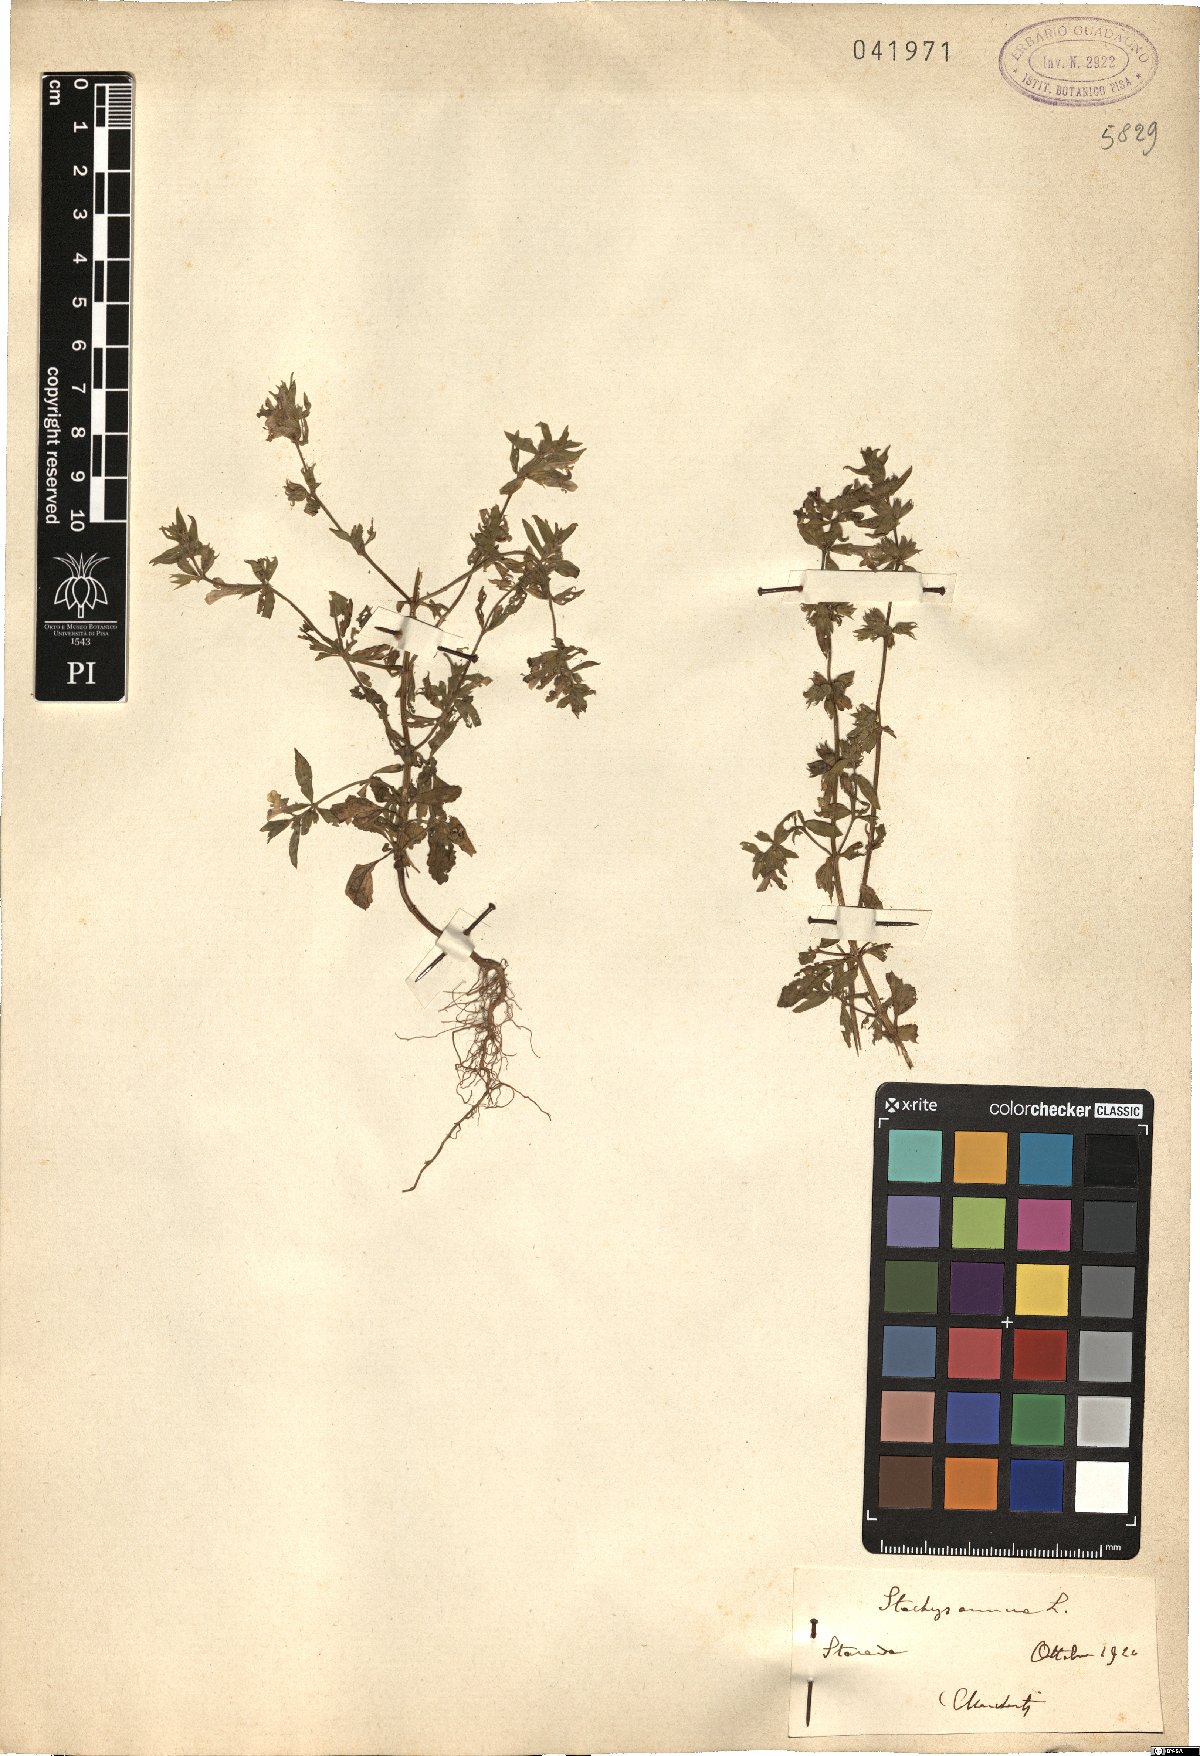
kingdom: Plantae
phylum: Tracheophyta
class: Magnoliopsida
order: Lamiales
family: Lamiaceae
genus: Stachys
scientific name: Stachys annua
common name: Annual yellow-woundwort
